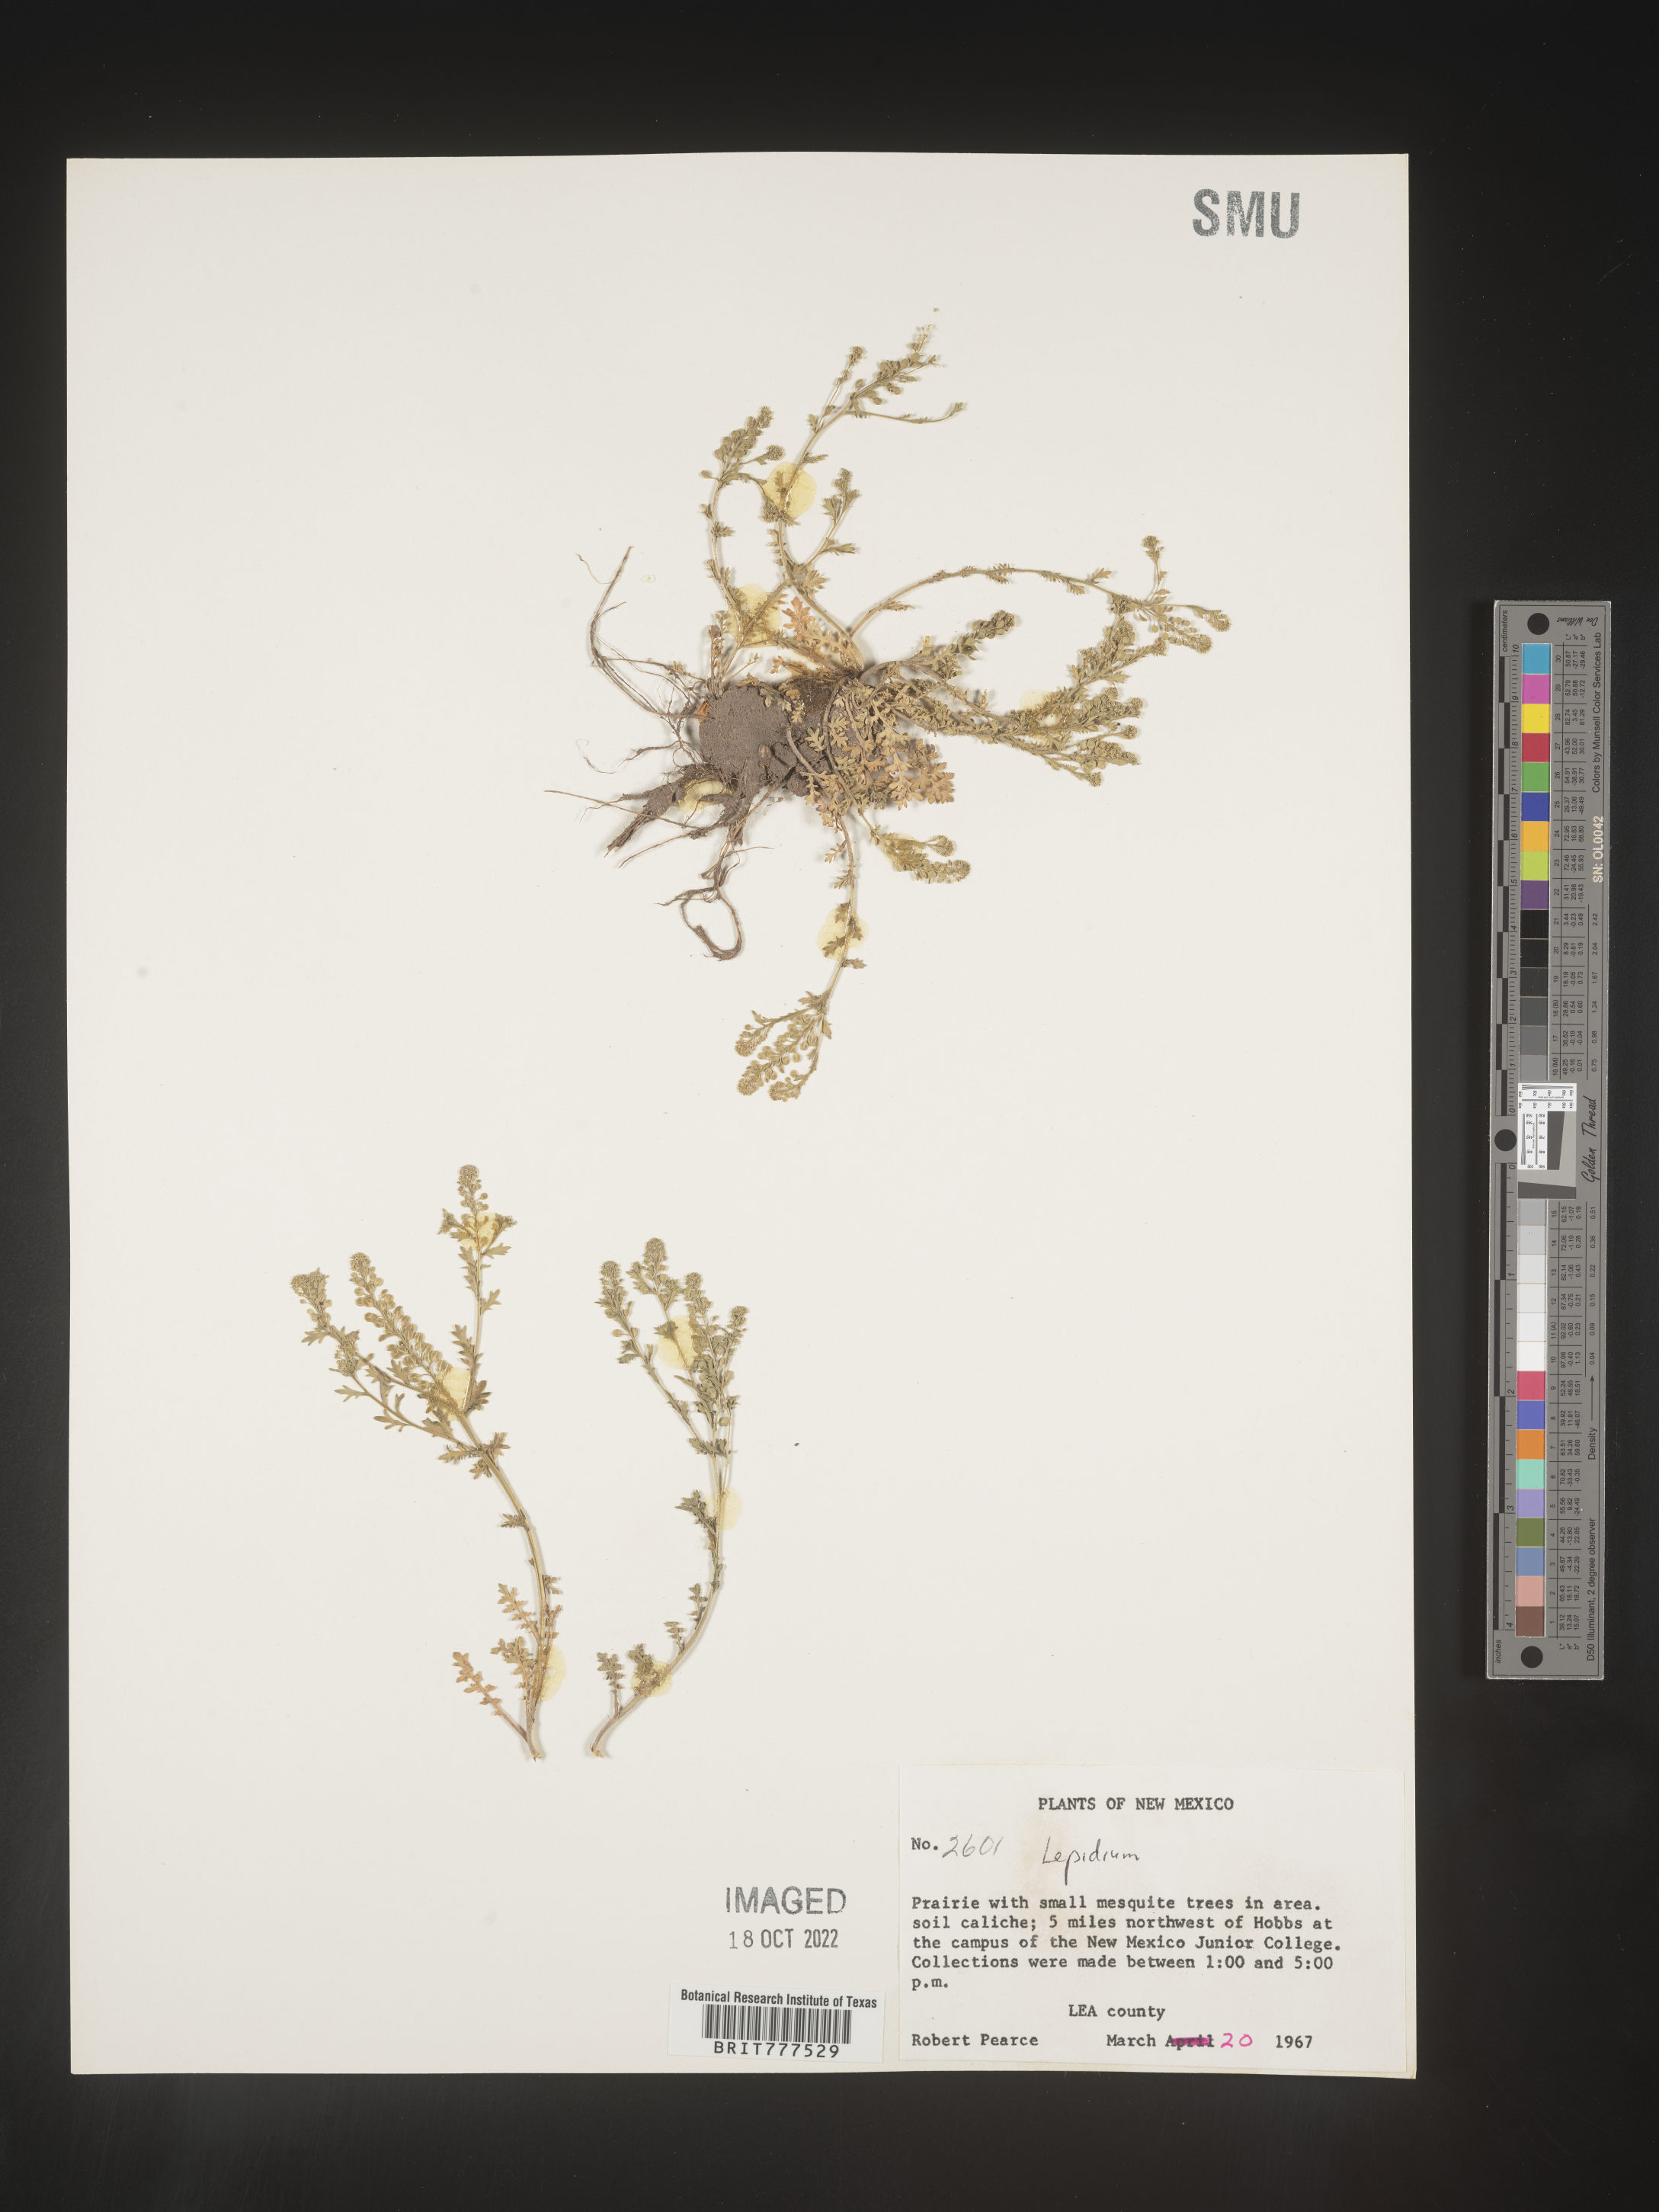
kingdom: Plantae
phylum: Tracheophyta
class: Magnoliopsida
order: Brassicales
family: Brassicaceae
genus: Lepidium
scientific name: Lepidium
